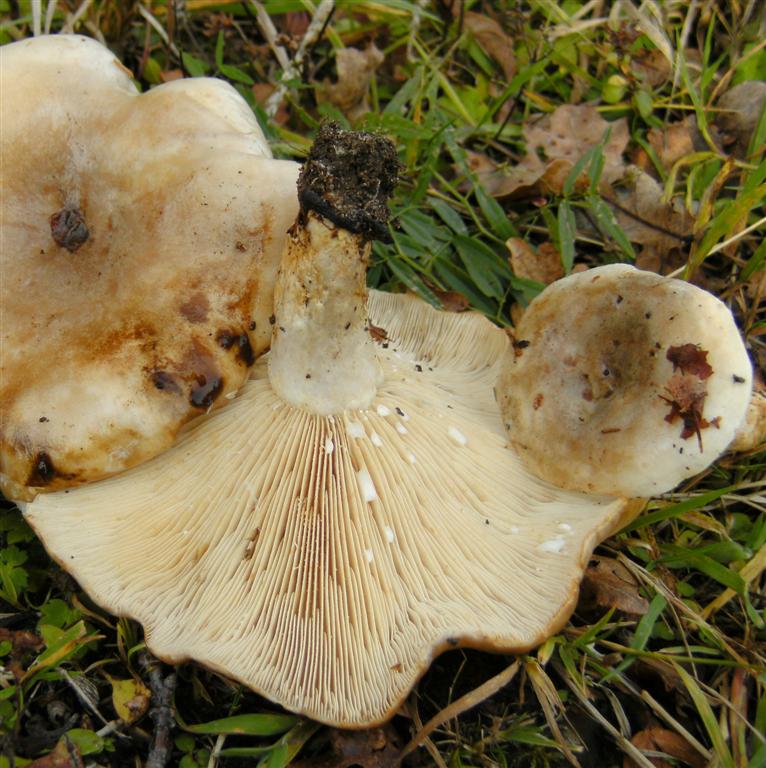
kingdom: Fungi
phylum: Basidiomycota
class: Agaricomycetes
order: Russulales
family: Russulaceae
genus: Lactarius
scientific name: Lactarius pallidus
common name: bleg mælkehat
